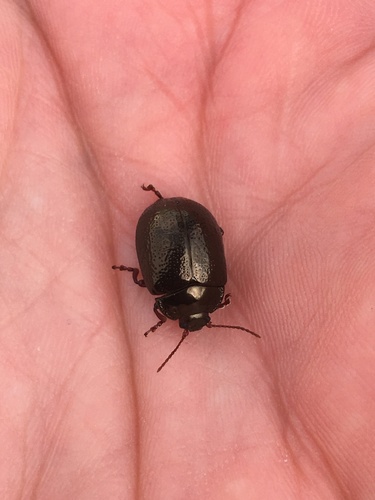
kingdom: Animalia
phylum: Arthropoda
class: Insecta
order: Coleoptera
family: Chrysomelidae
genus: Chrysolina
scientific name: Chrysolina bankii
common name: Leaf beetle
